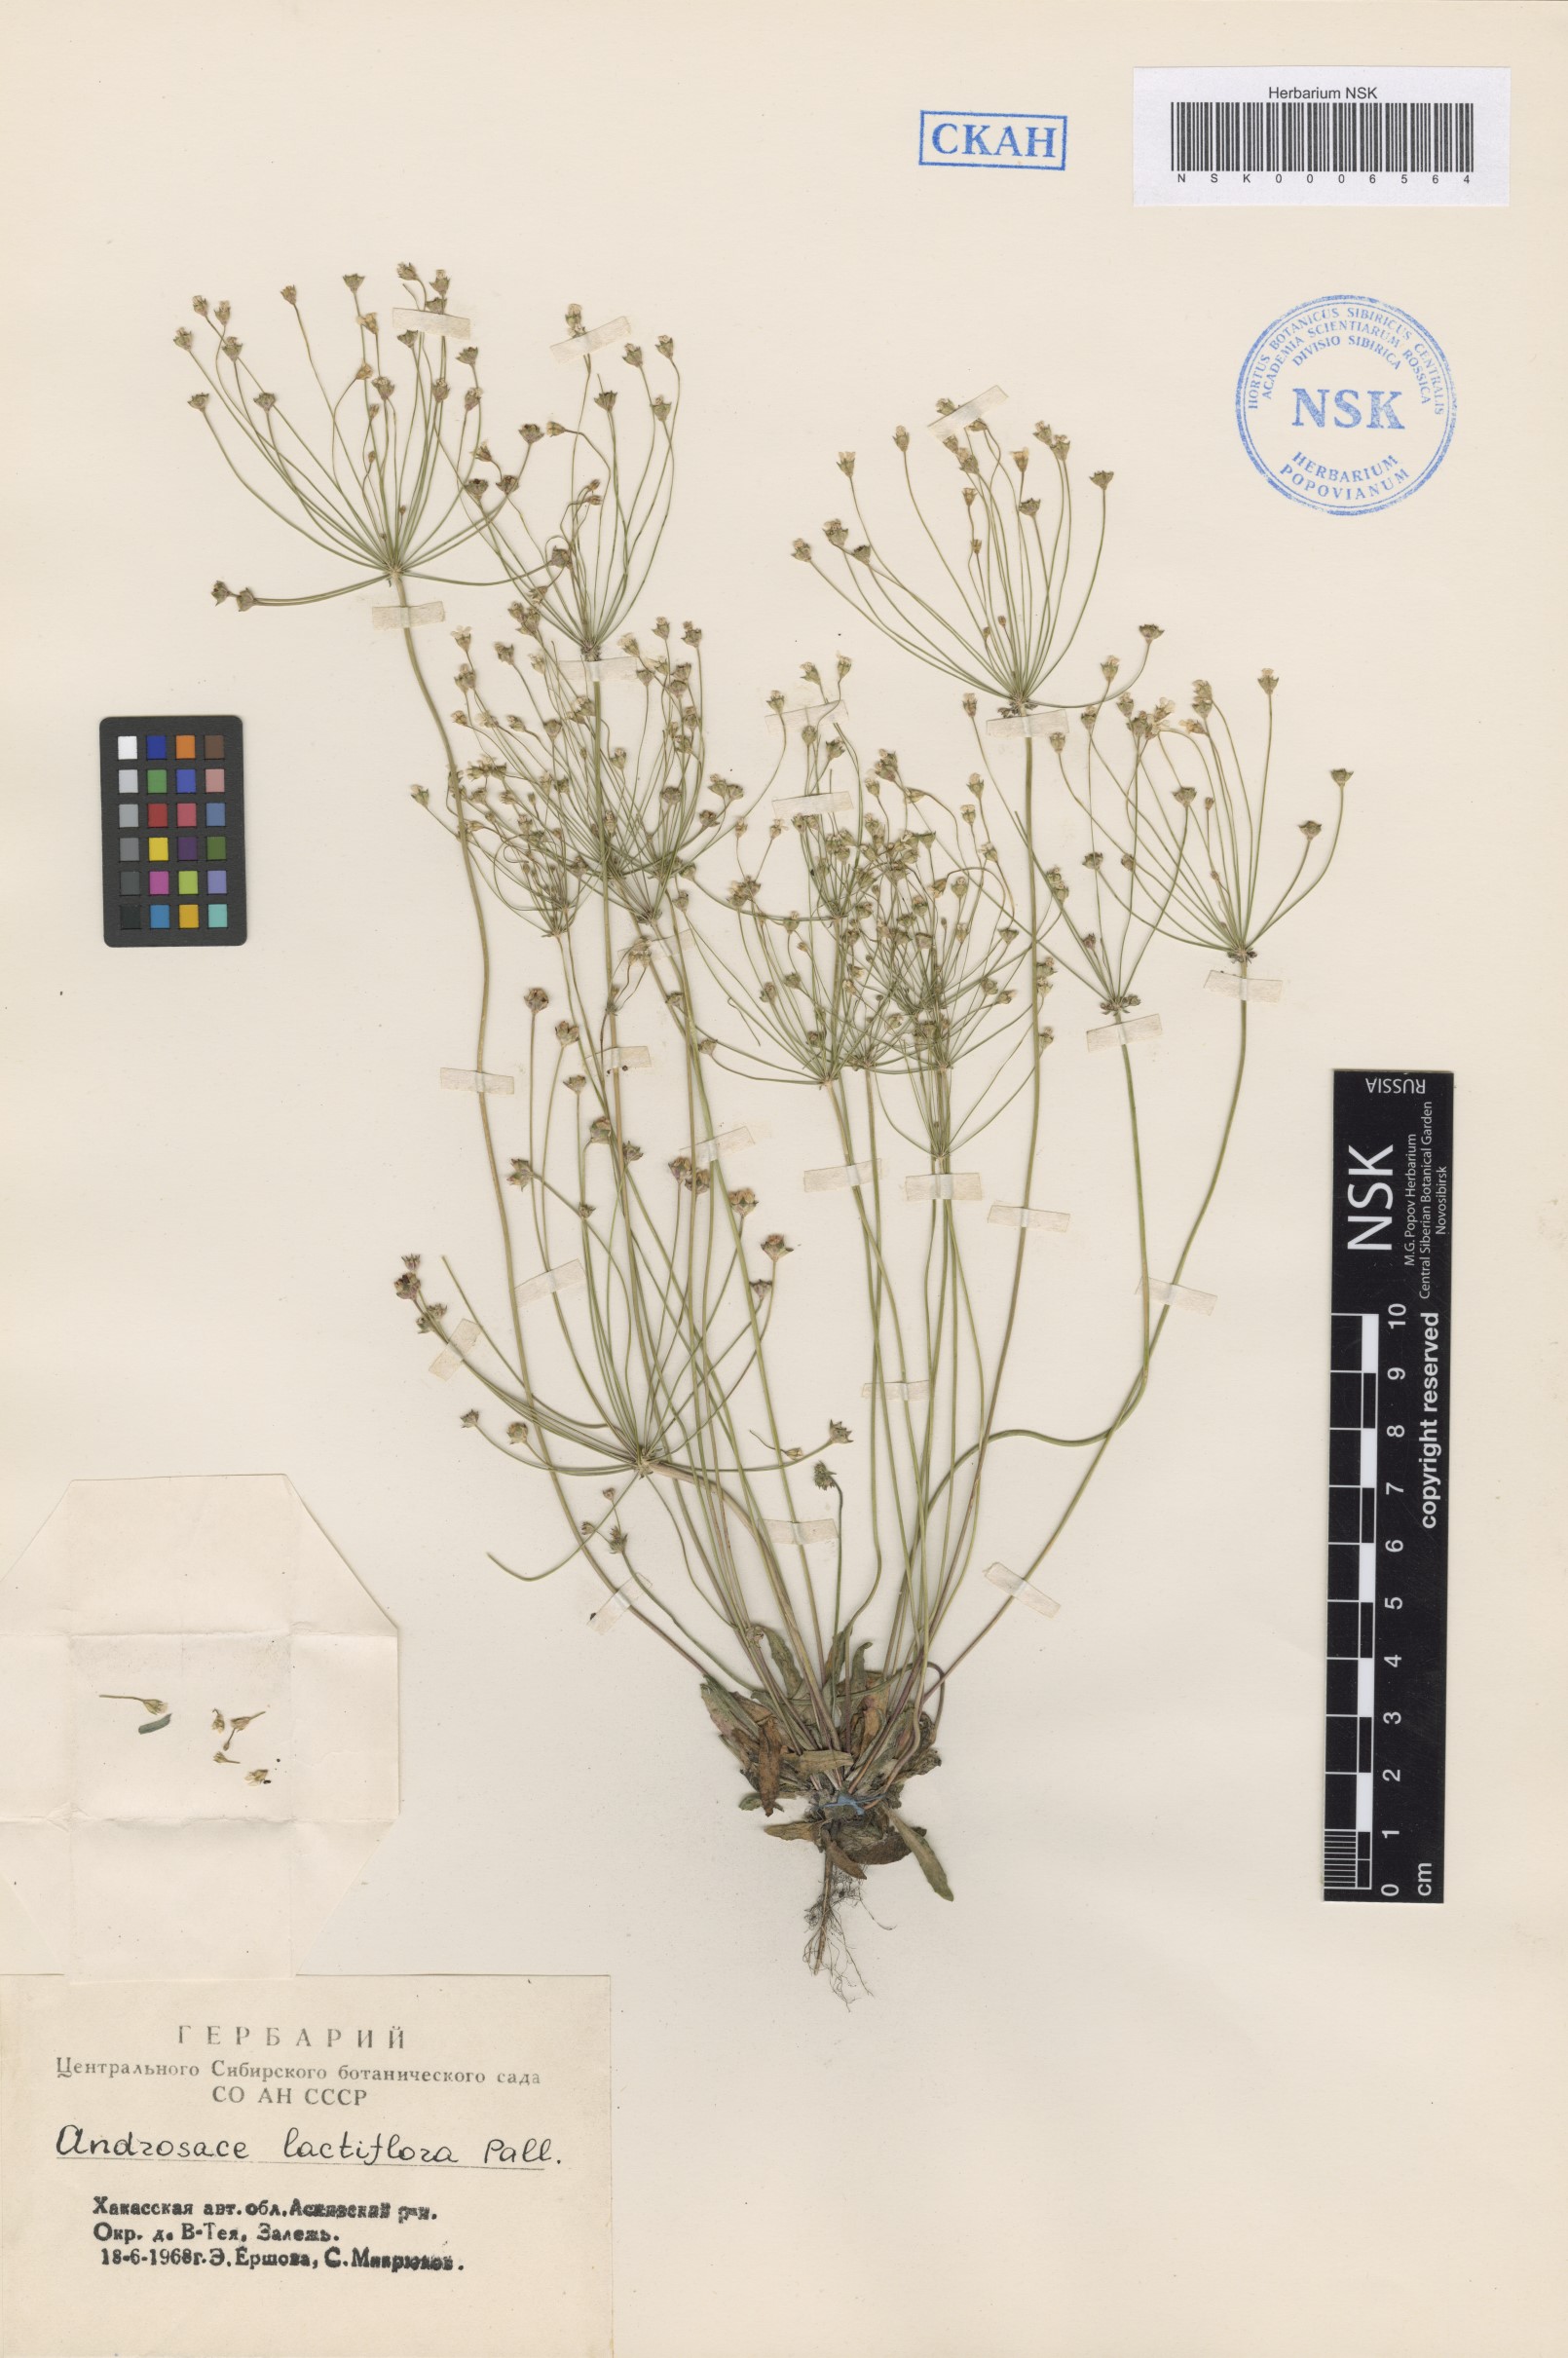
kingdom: Plantae
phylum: Tracheophyta
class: Magnoliopsida
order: Ericales
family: Primulaceae
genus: Androsace
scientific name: Androsace lactiflora
